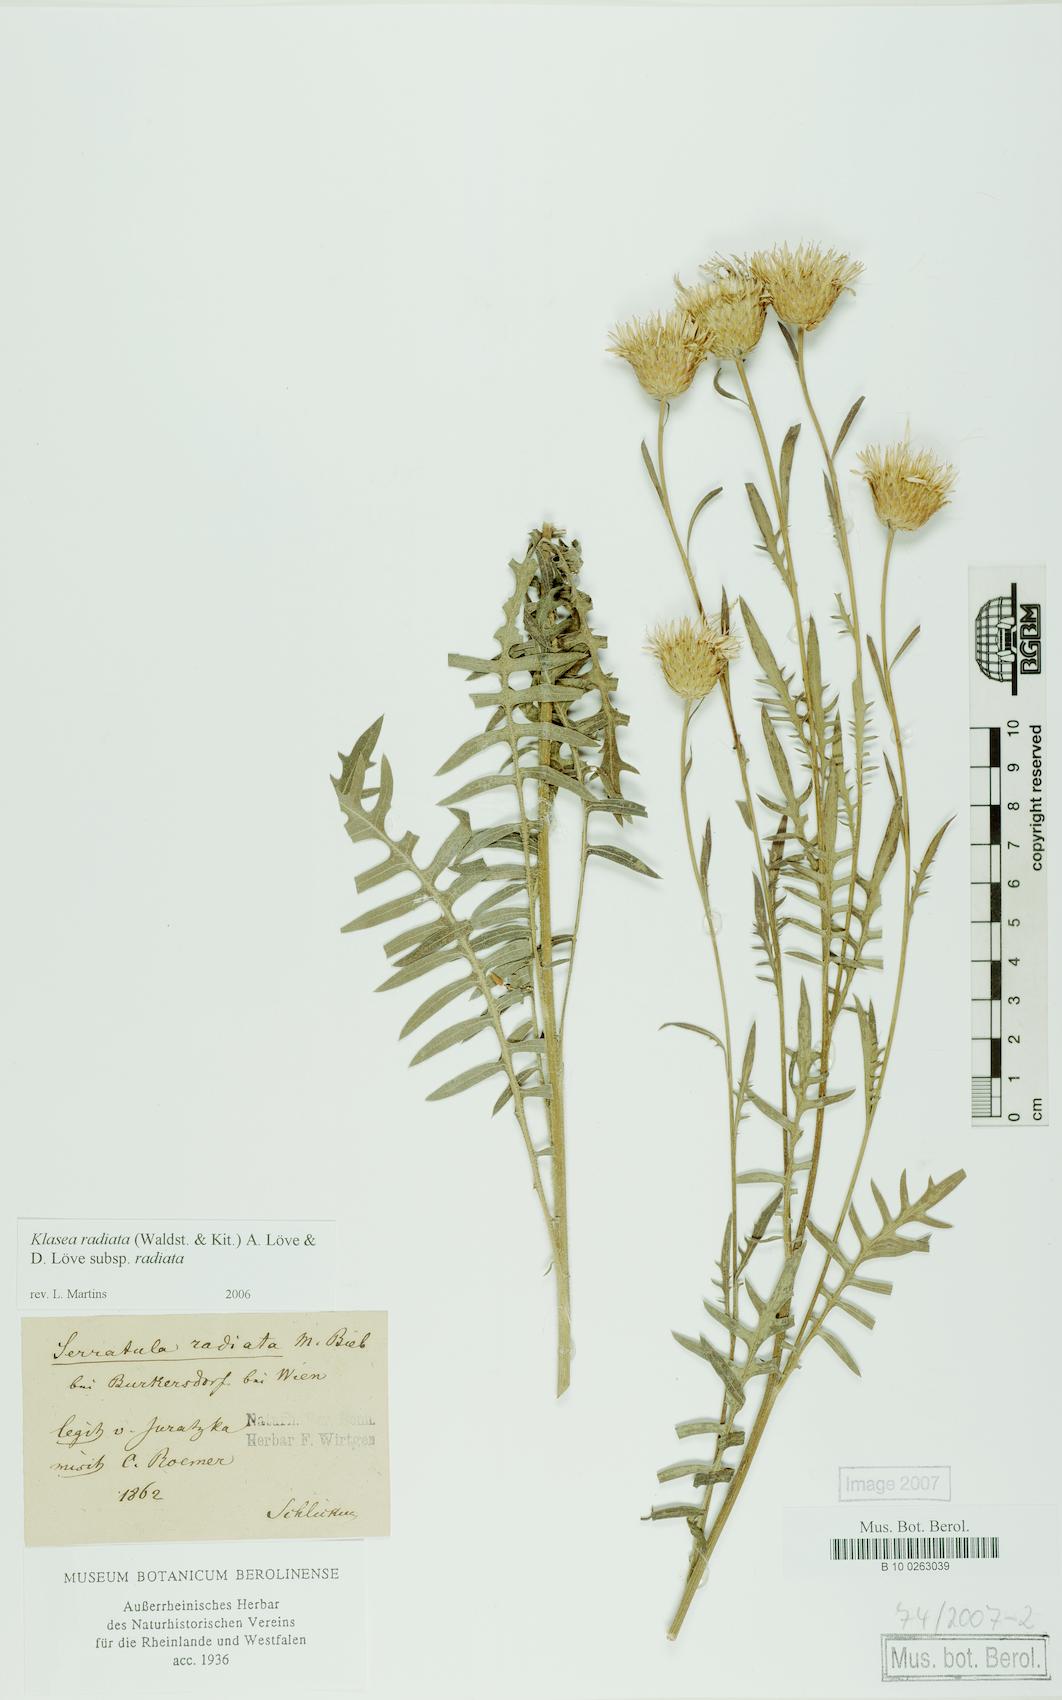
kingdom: Plantae
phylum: Tracheophyta
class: Magnoliopsida
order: Asterales
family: Asteraceae
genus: Klasea
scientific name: Klasea radiata
